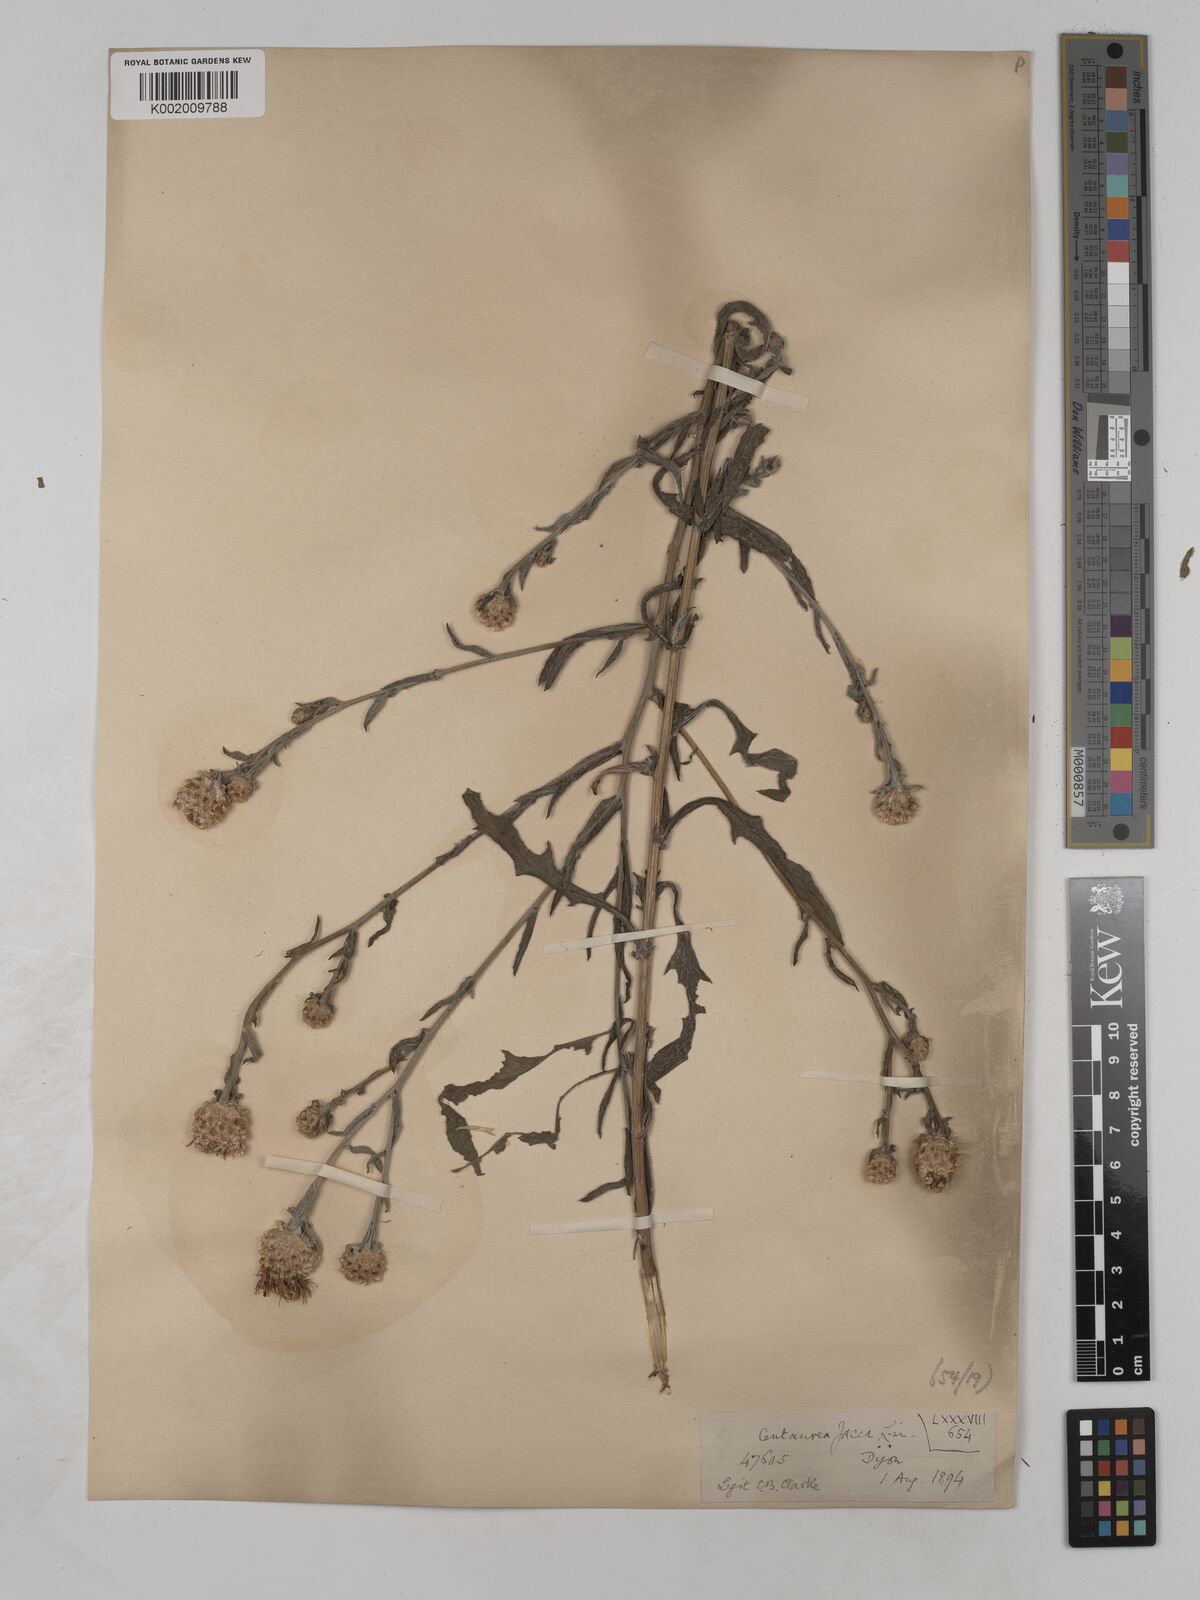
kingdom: Plantae
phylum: Tracheophyta
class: Magnoliopsida
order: Asterales
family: Asteraceae
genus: Centaurea
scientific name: Centaurea timbalii
